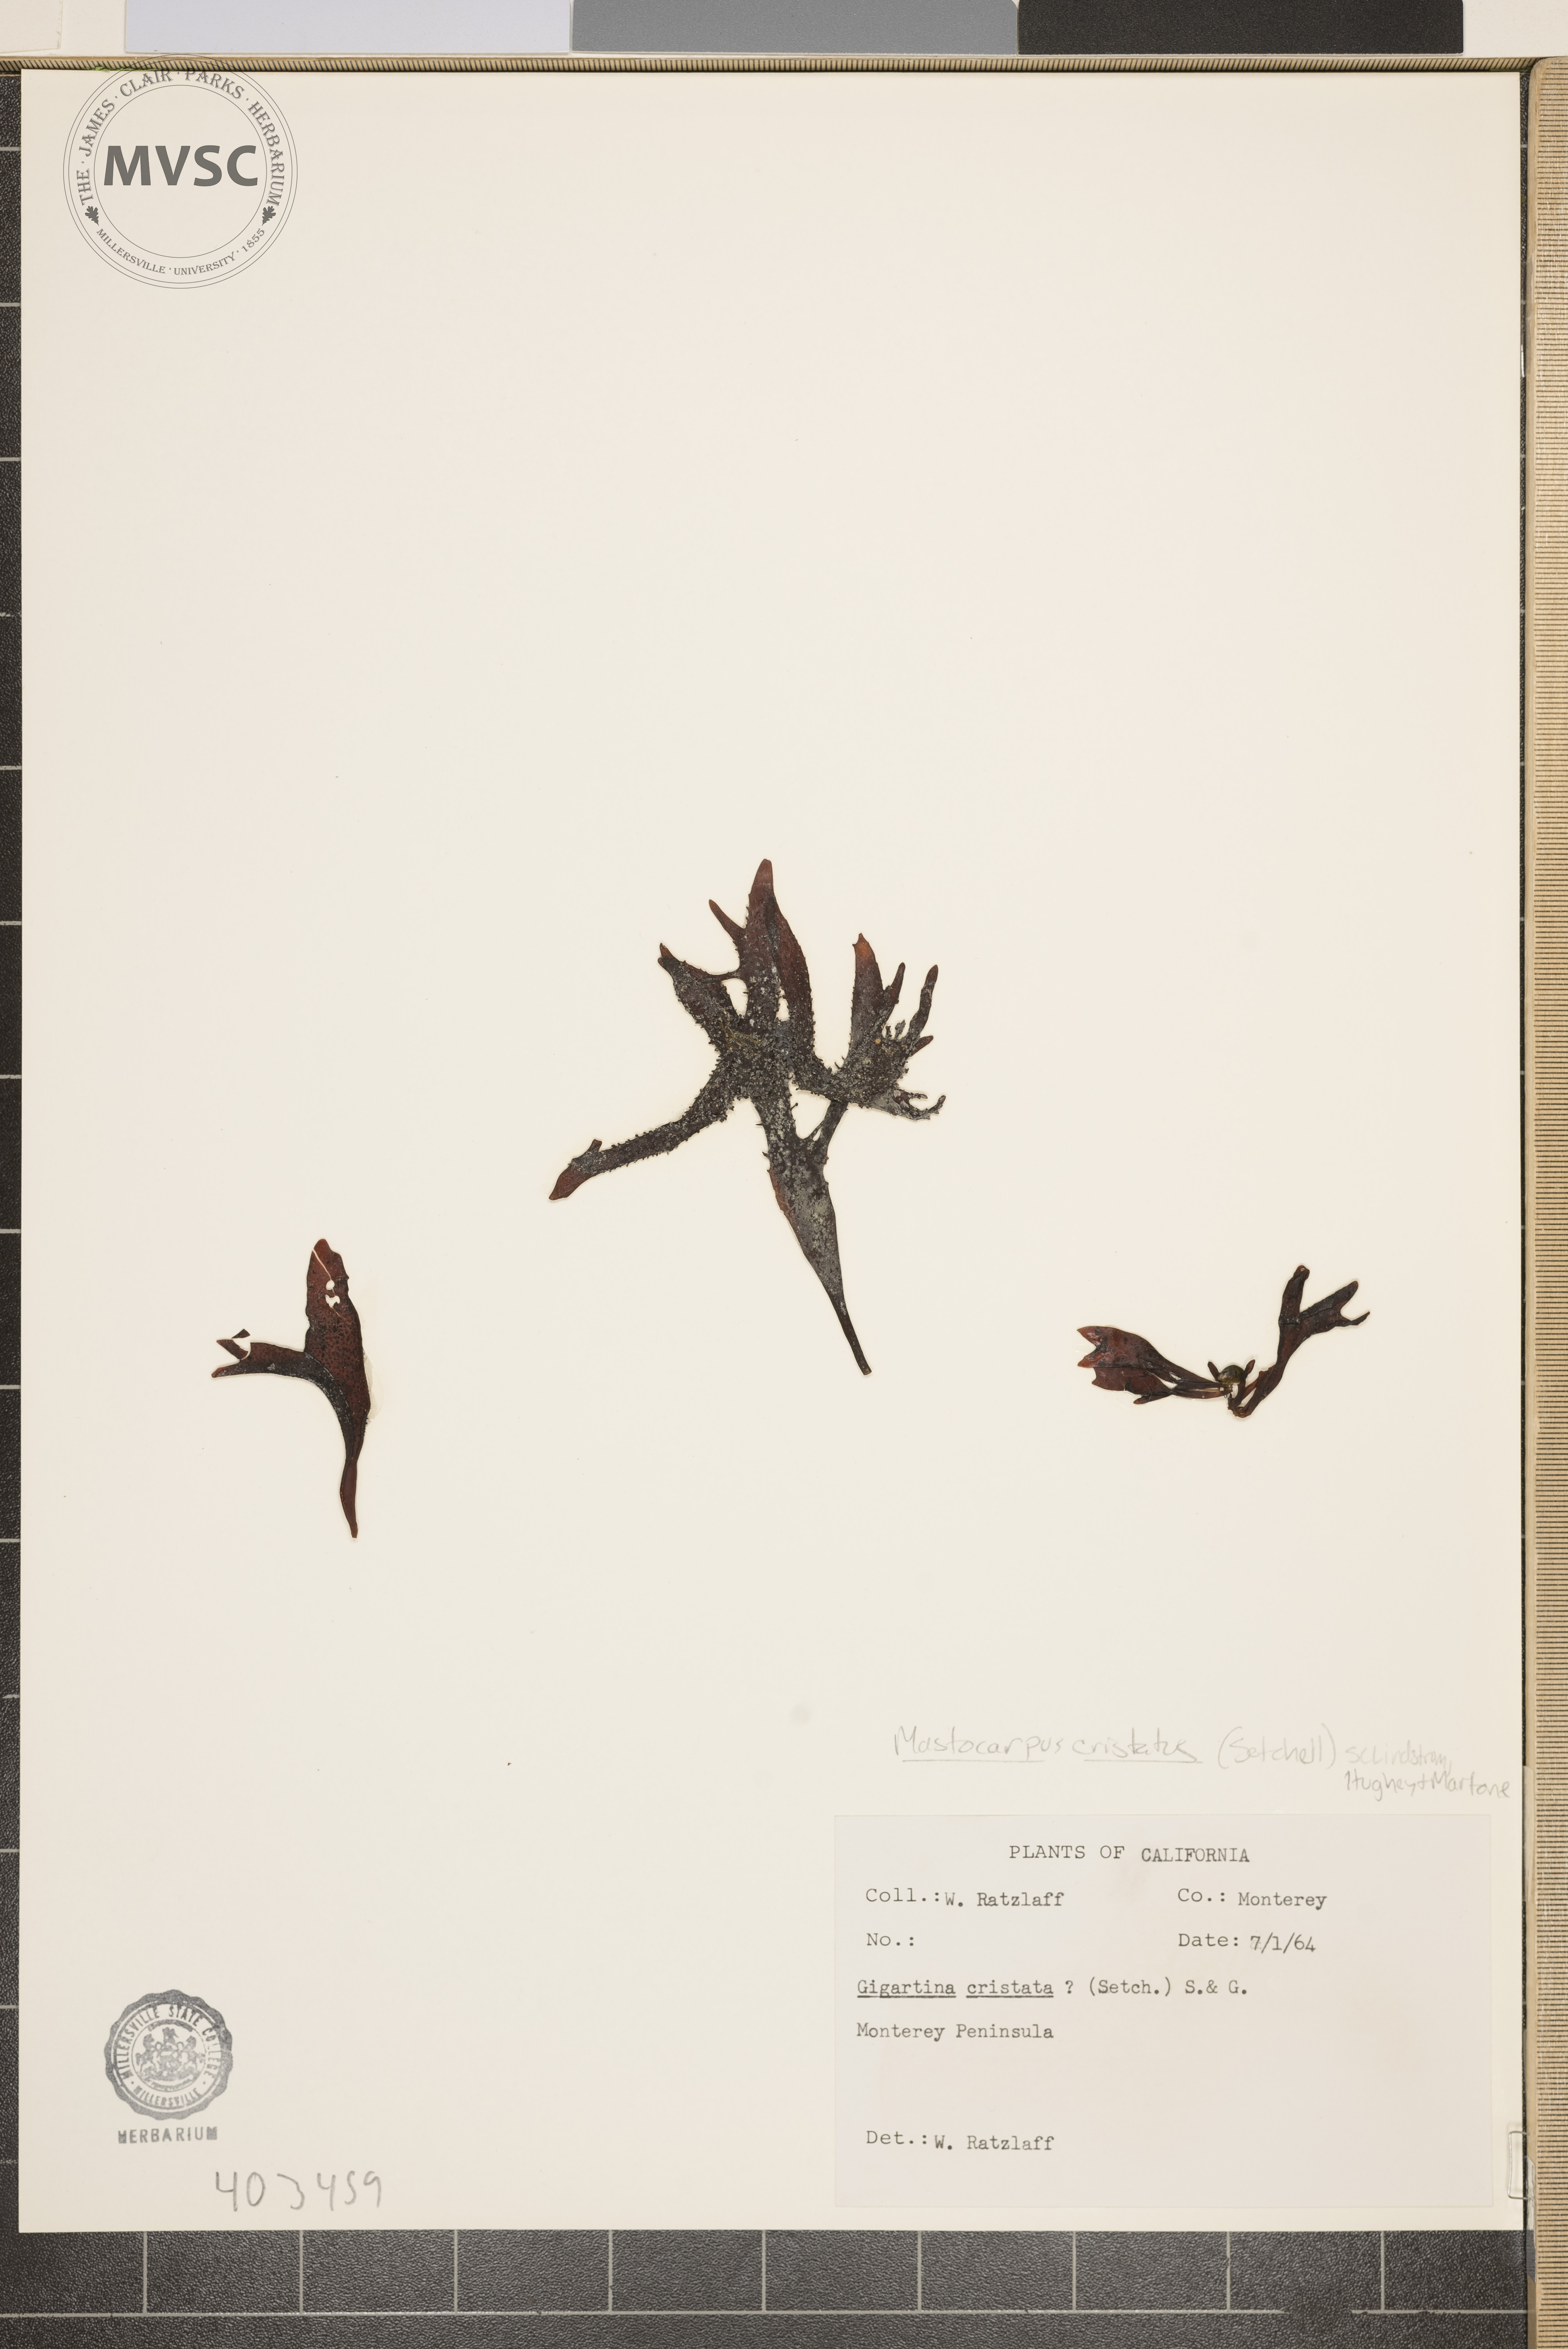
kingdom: Plantae
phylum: Rhodophyta
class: Florideophyceae
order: Gigartinales
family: Phyllophoraceae
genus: Mastocarpus
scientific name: Mastocarpus cristatus
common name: Red Seaweed
